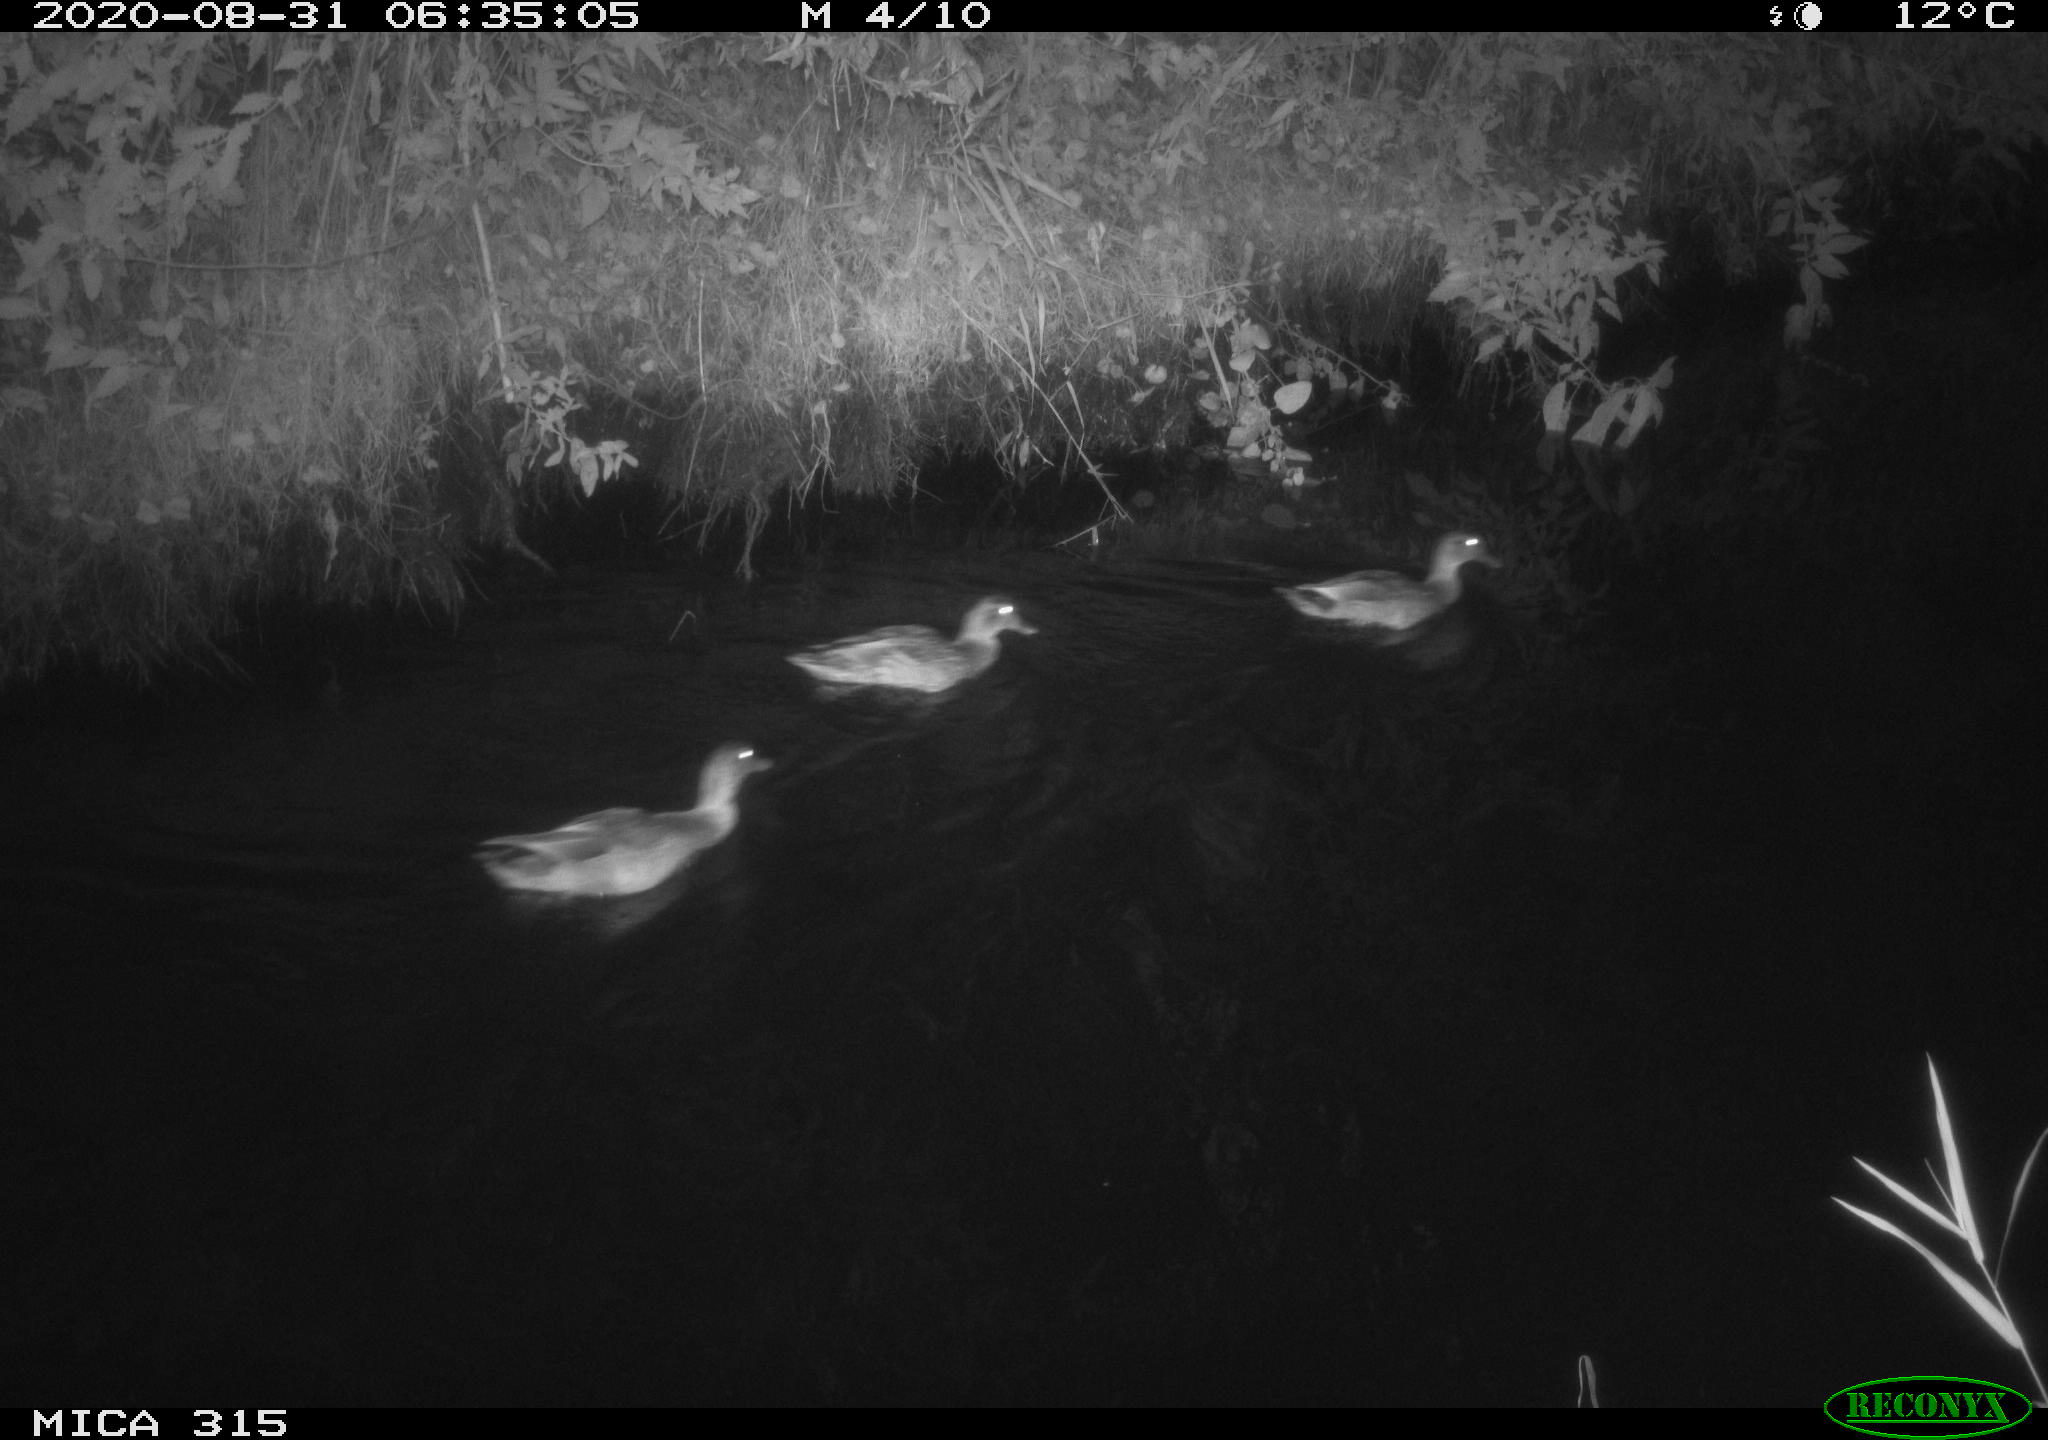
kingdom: Animalia
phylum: Chordata
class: Aves
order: Anseriformes
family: Anatidae
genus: Anas
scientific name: Anas platyrhynchos
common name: Mallard
